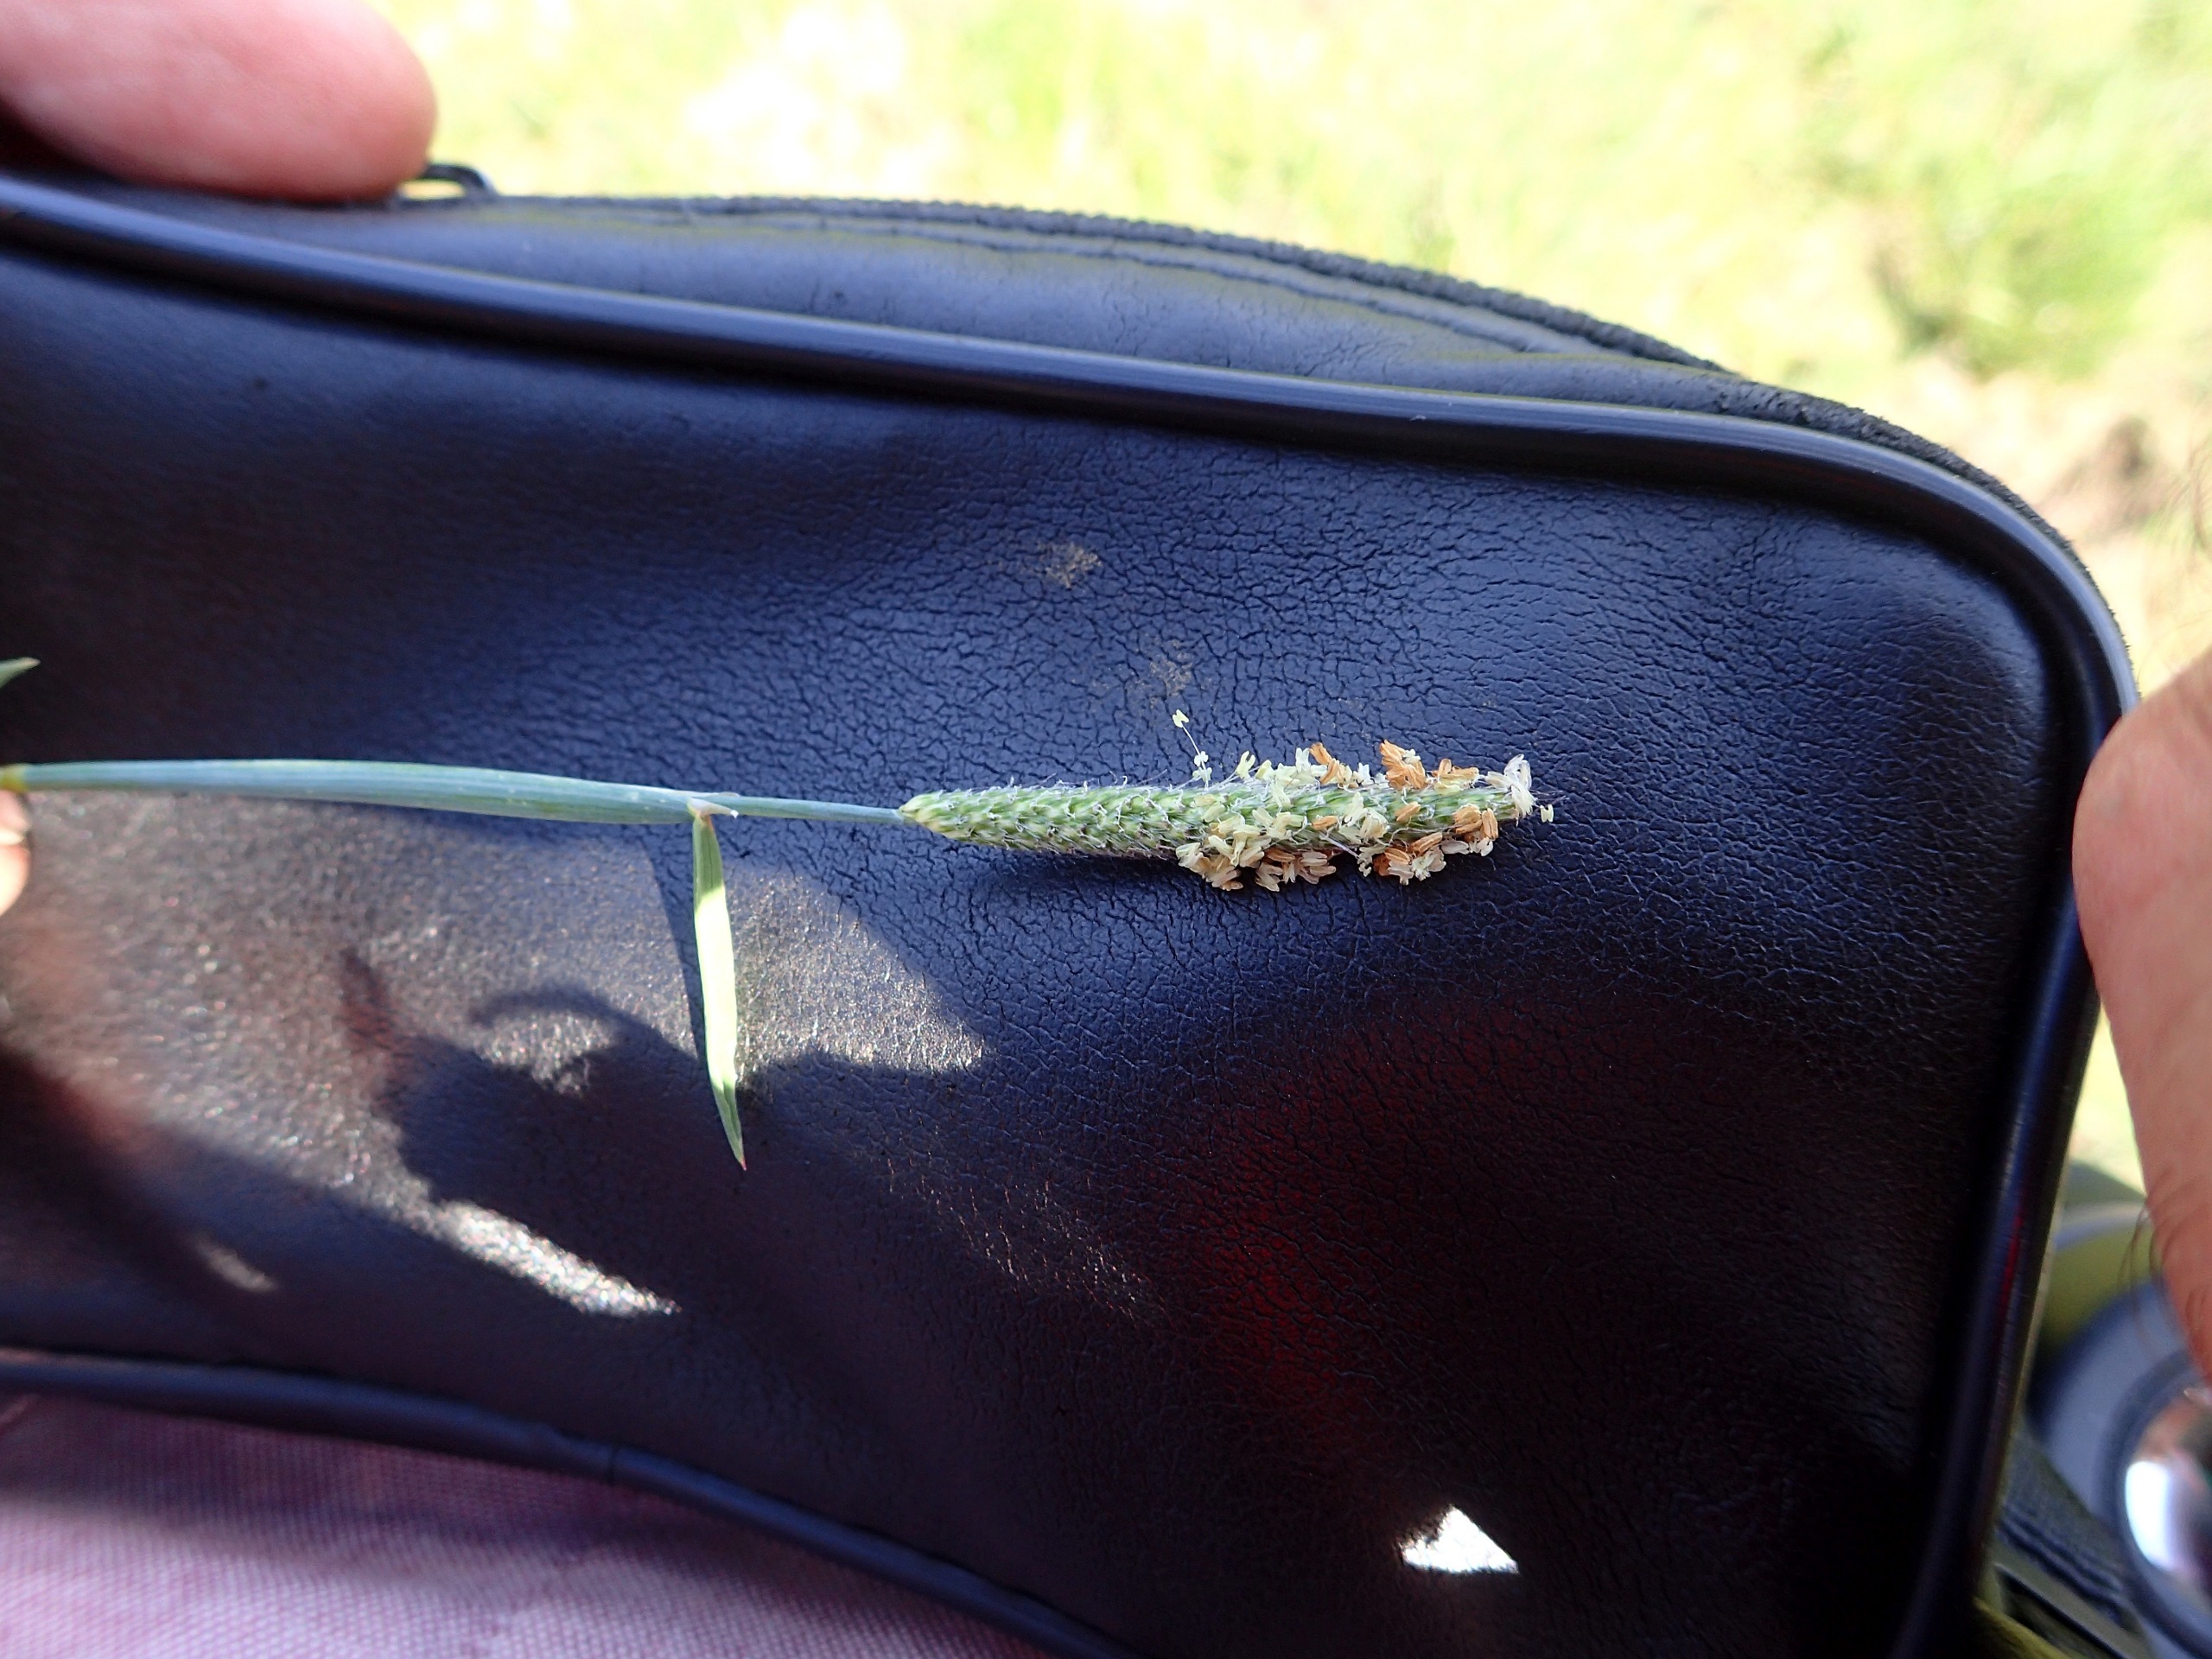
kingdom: Plantae
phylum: Tracheophyta
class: Liliopsida
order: Poales
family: Poaceae
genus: Alopecurus
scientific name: Alopecurus geniculatus
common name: Knæbøjet rævehale
